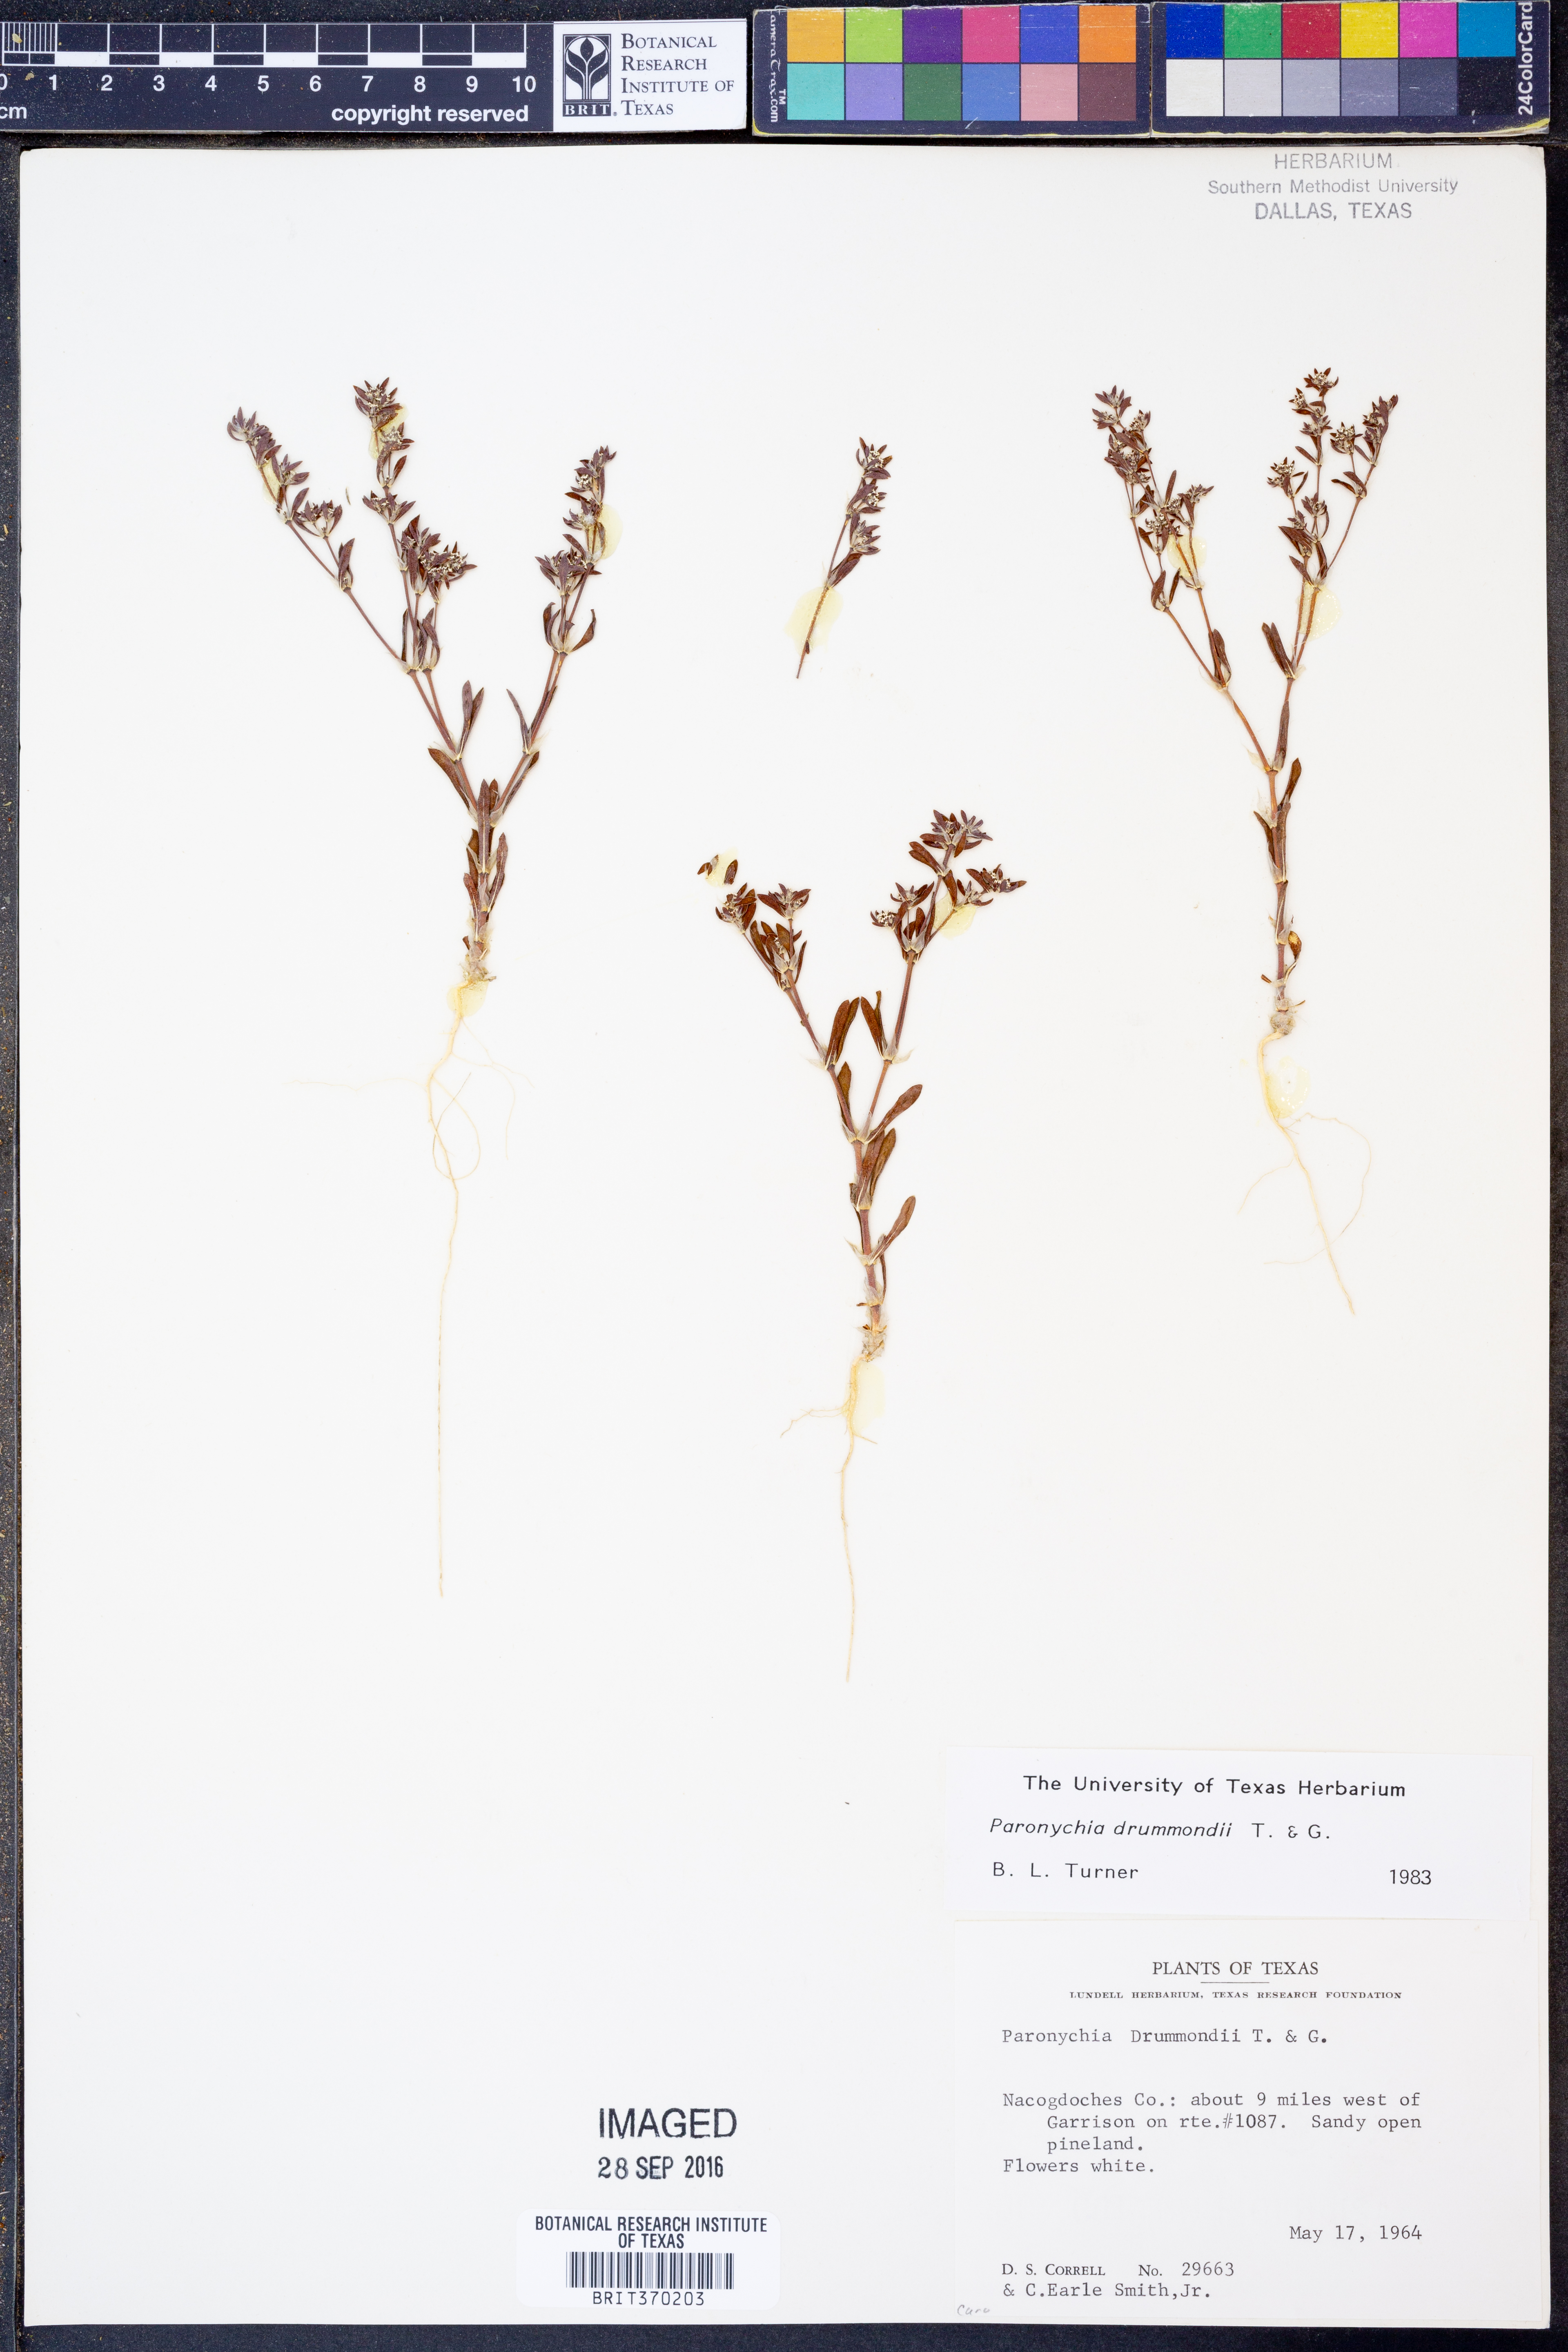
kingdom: Plantae
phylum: Tracheophyta
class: Magnoliopsida
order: Caryophyllales
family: Caryophyllaceae
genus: Paronychia
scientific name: Paronychia drummondii
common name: Drummond's nailwort
